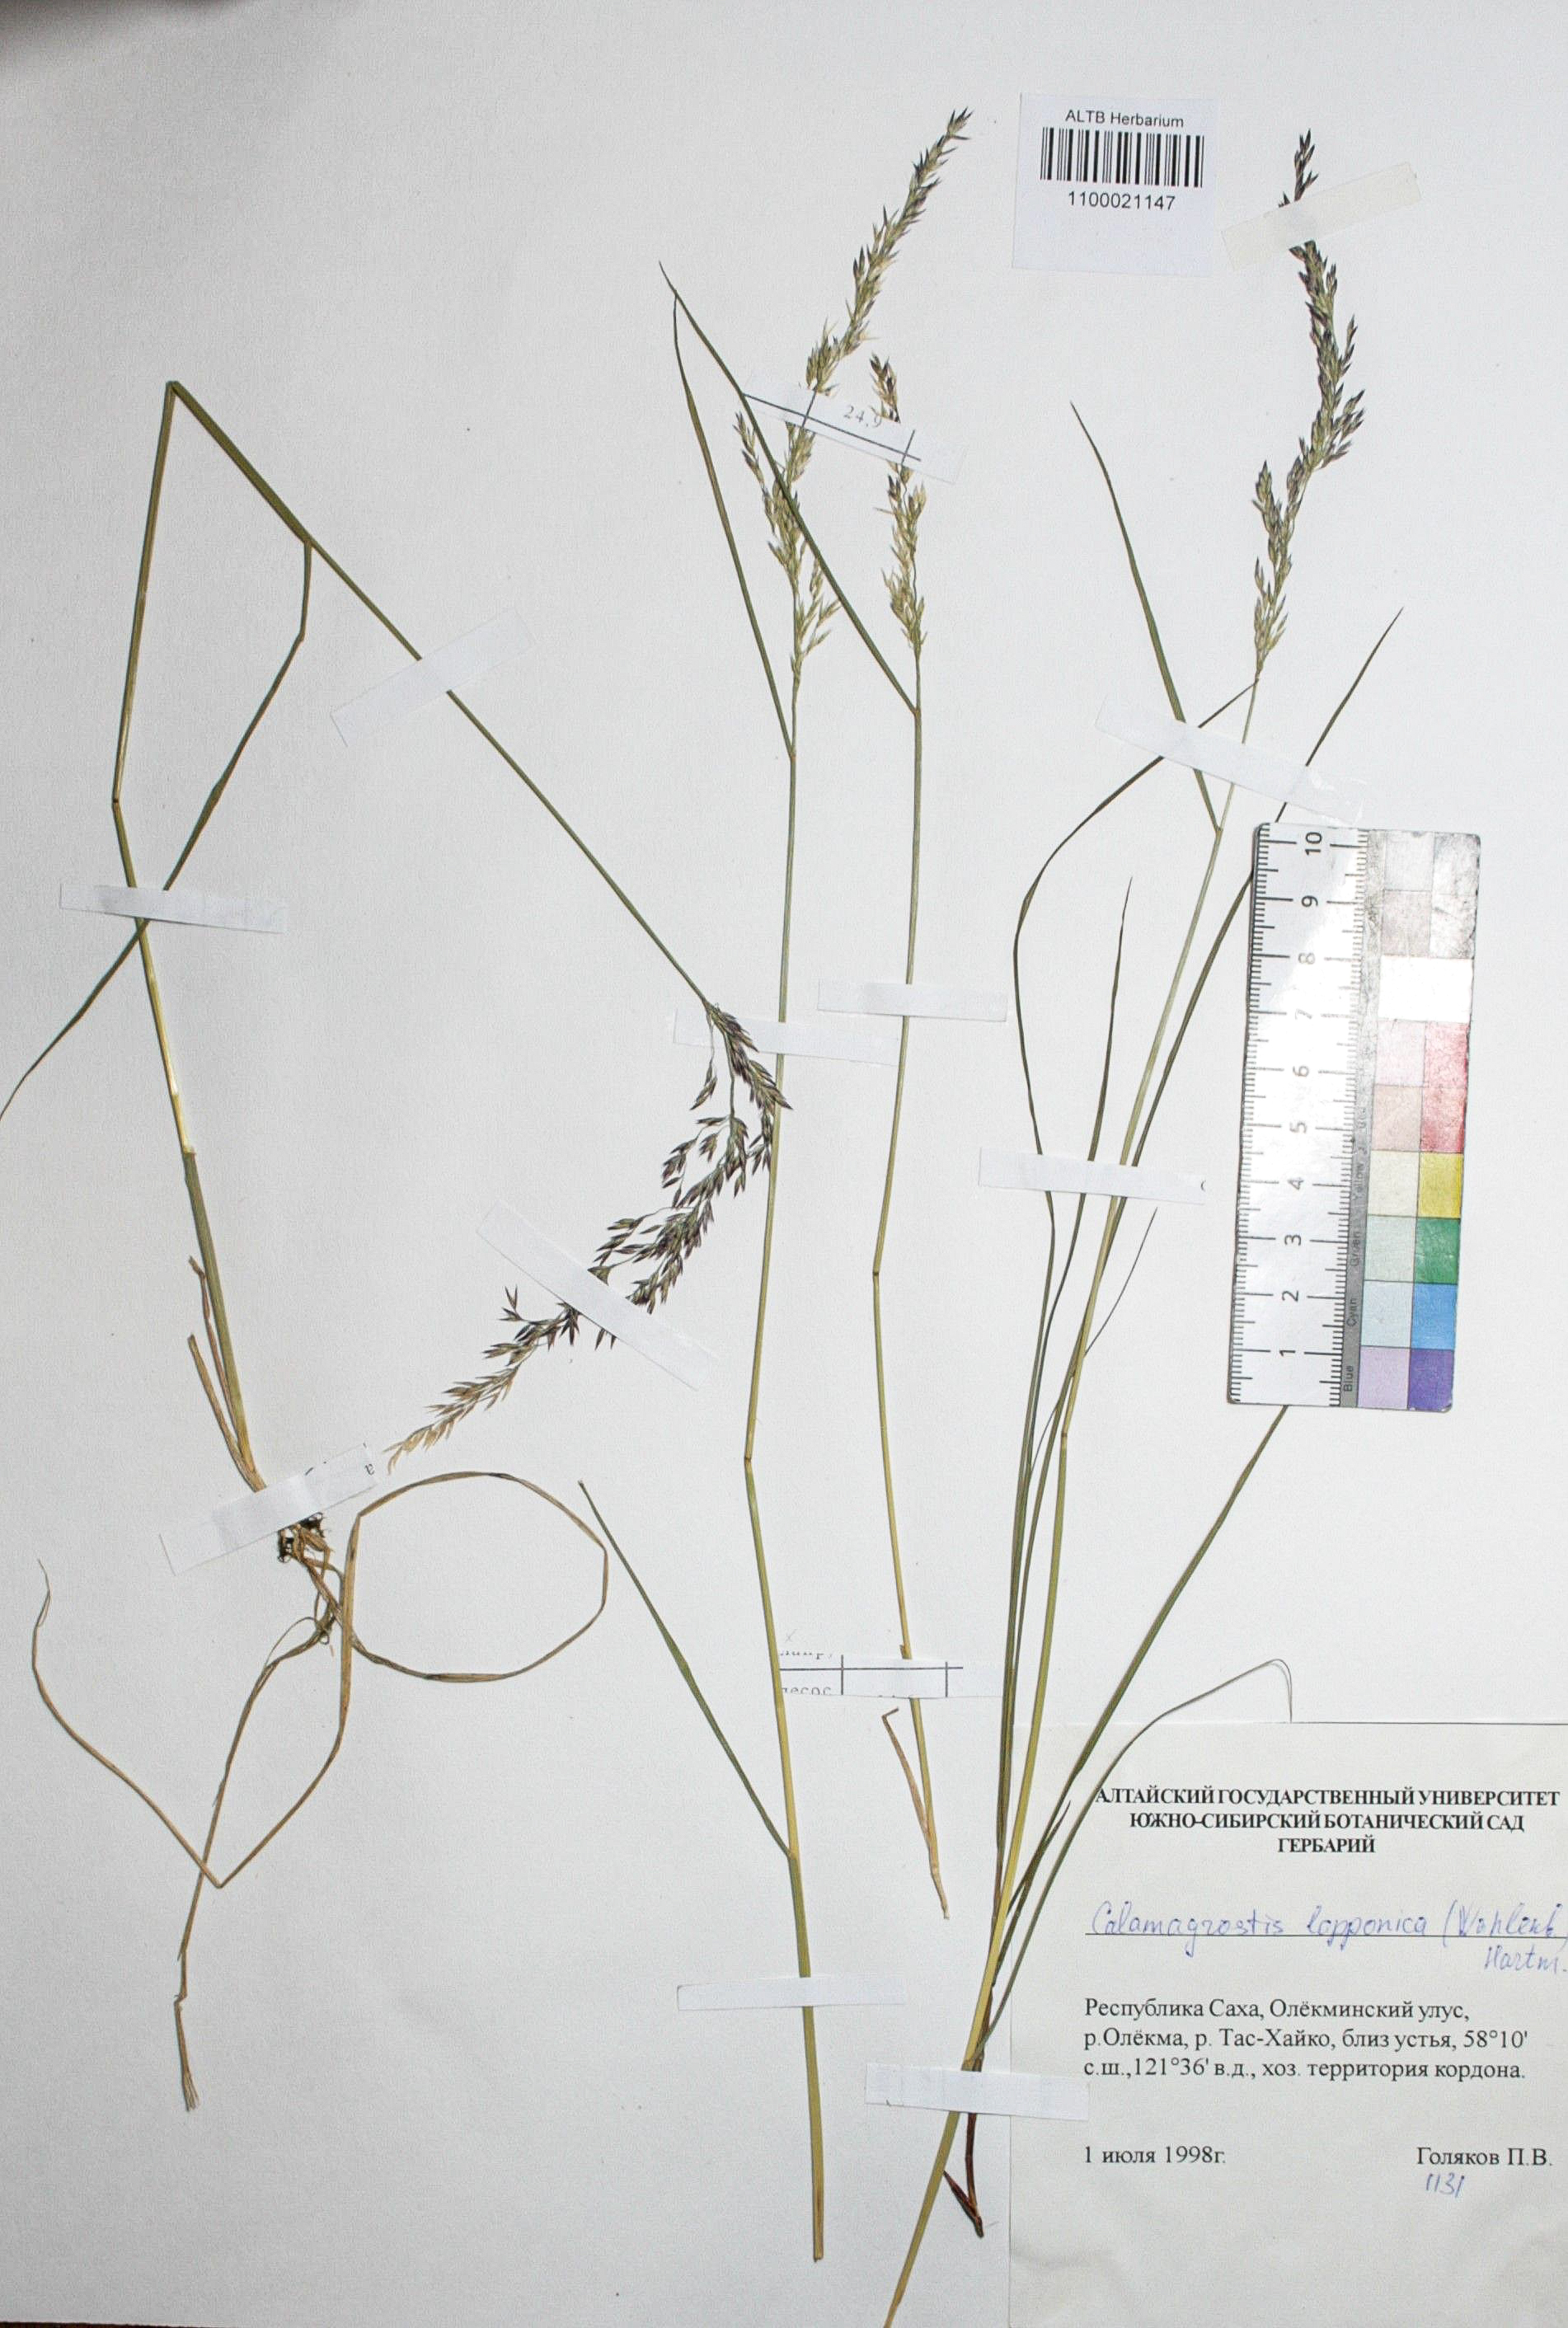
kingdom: Plantae
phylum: Tracheophyta
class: Liliopsida
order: Poales
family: Poaceae
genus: Calamagrostis
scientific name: Calamagrostis lapponica
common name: Lapland reedgrass
